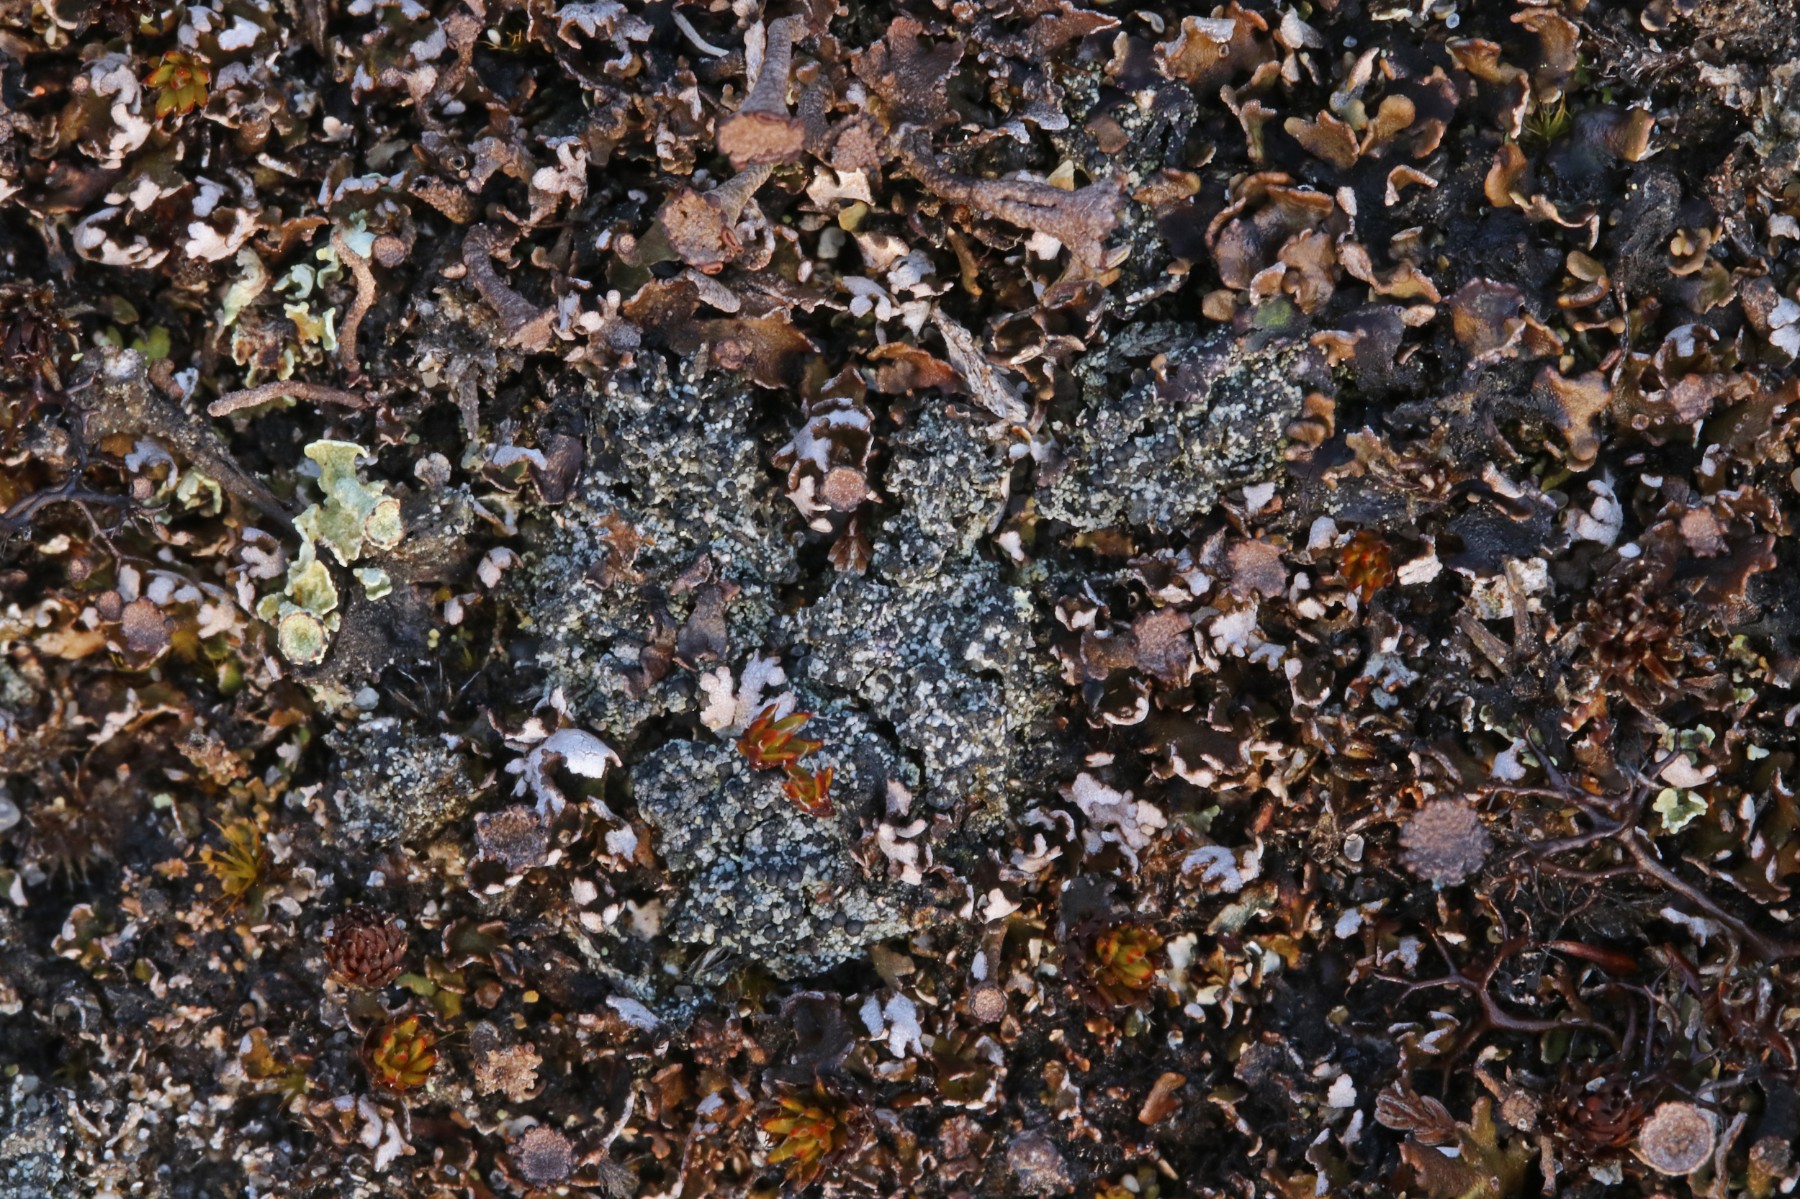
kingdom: Fungi
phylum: Ascomycota
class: Lecanoromycetes
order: Lecanorales
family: Byssolomataceae
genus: Micarea
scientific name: Micarea lignaria
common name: tørve-knaplav
